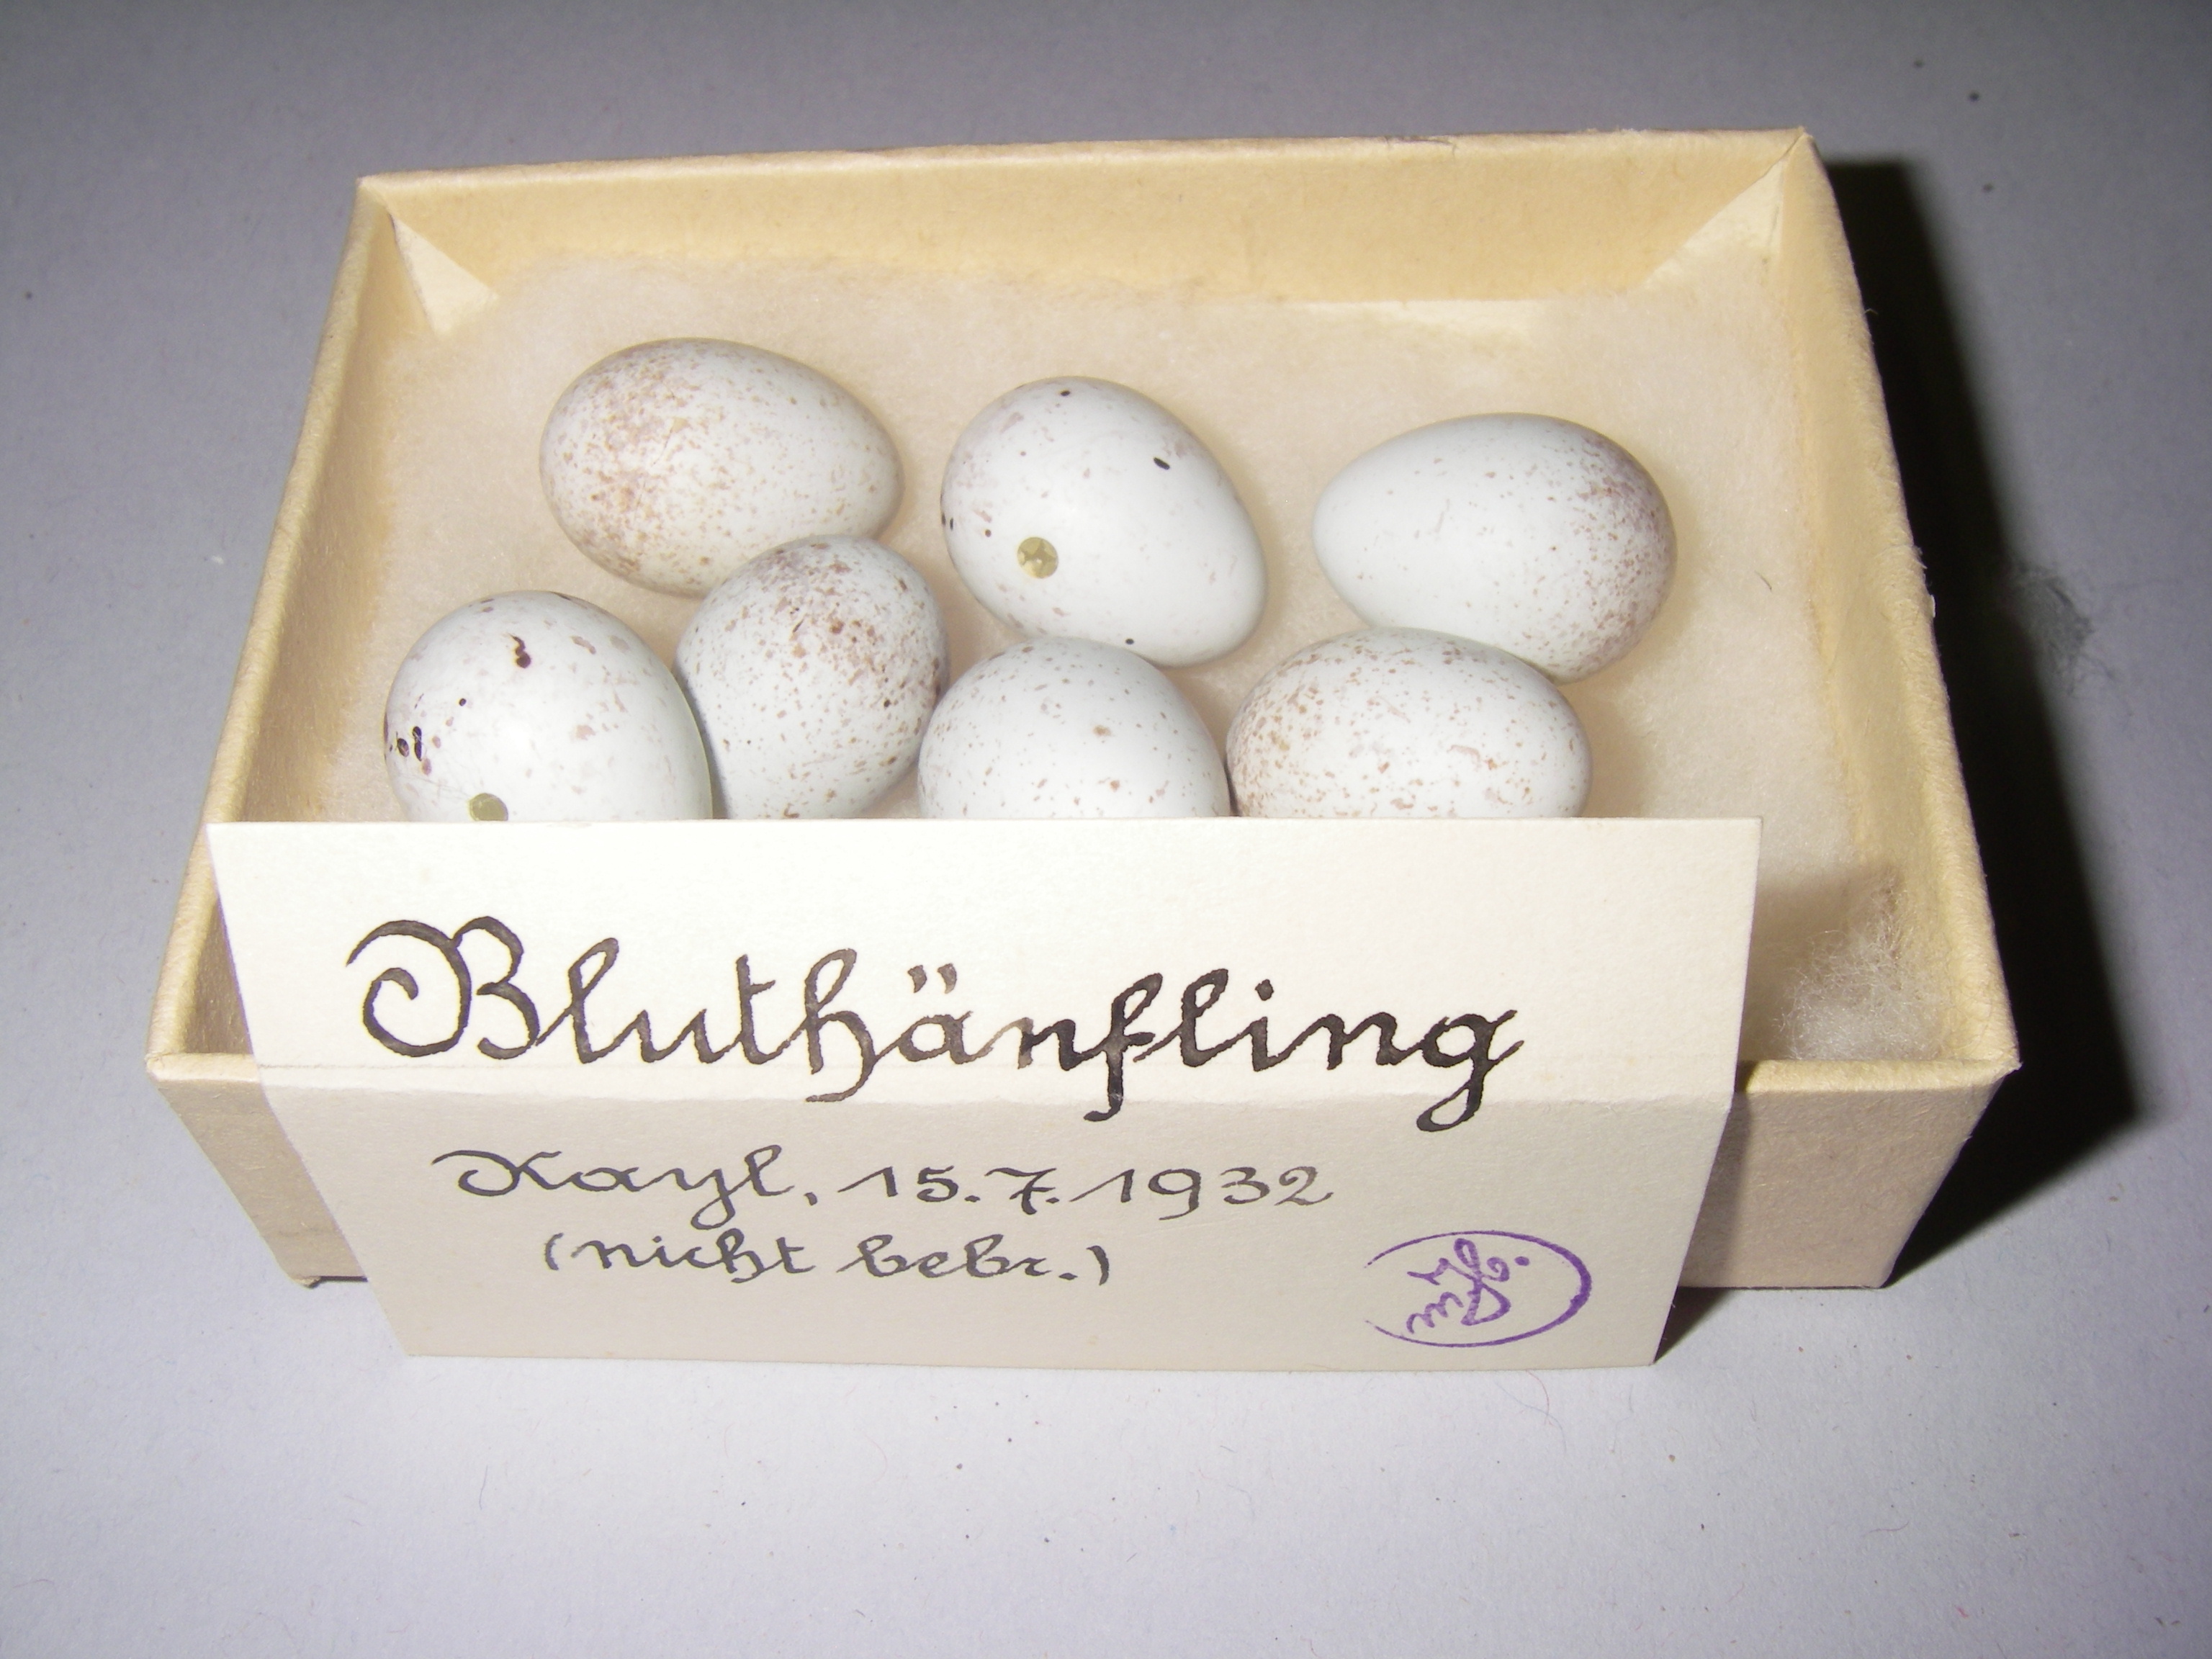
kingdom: Animalia
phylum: Chordata
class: Aves
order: Passeriformes
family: Fringillidae
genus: Linaria
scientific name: Linaria cannabina
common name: Common linnet
